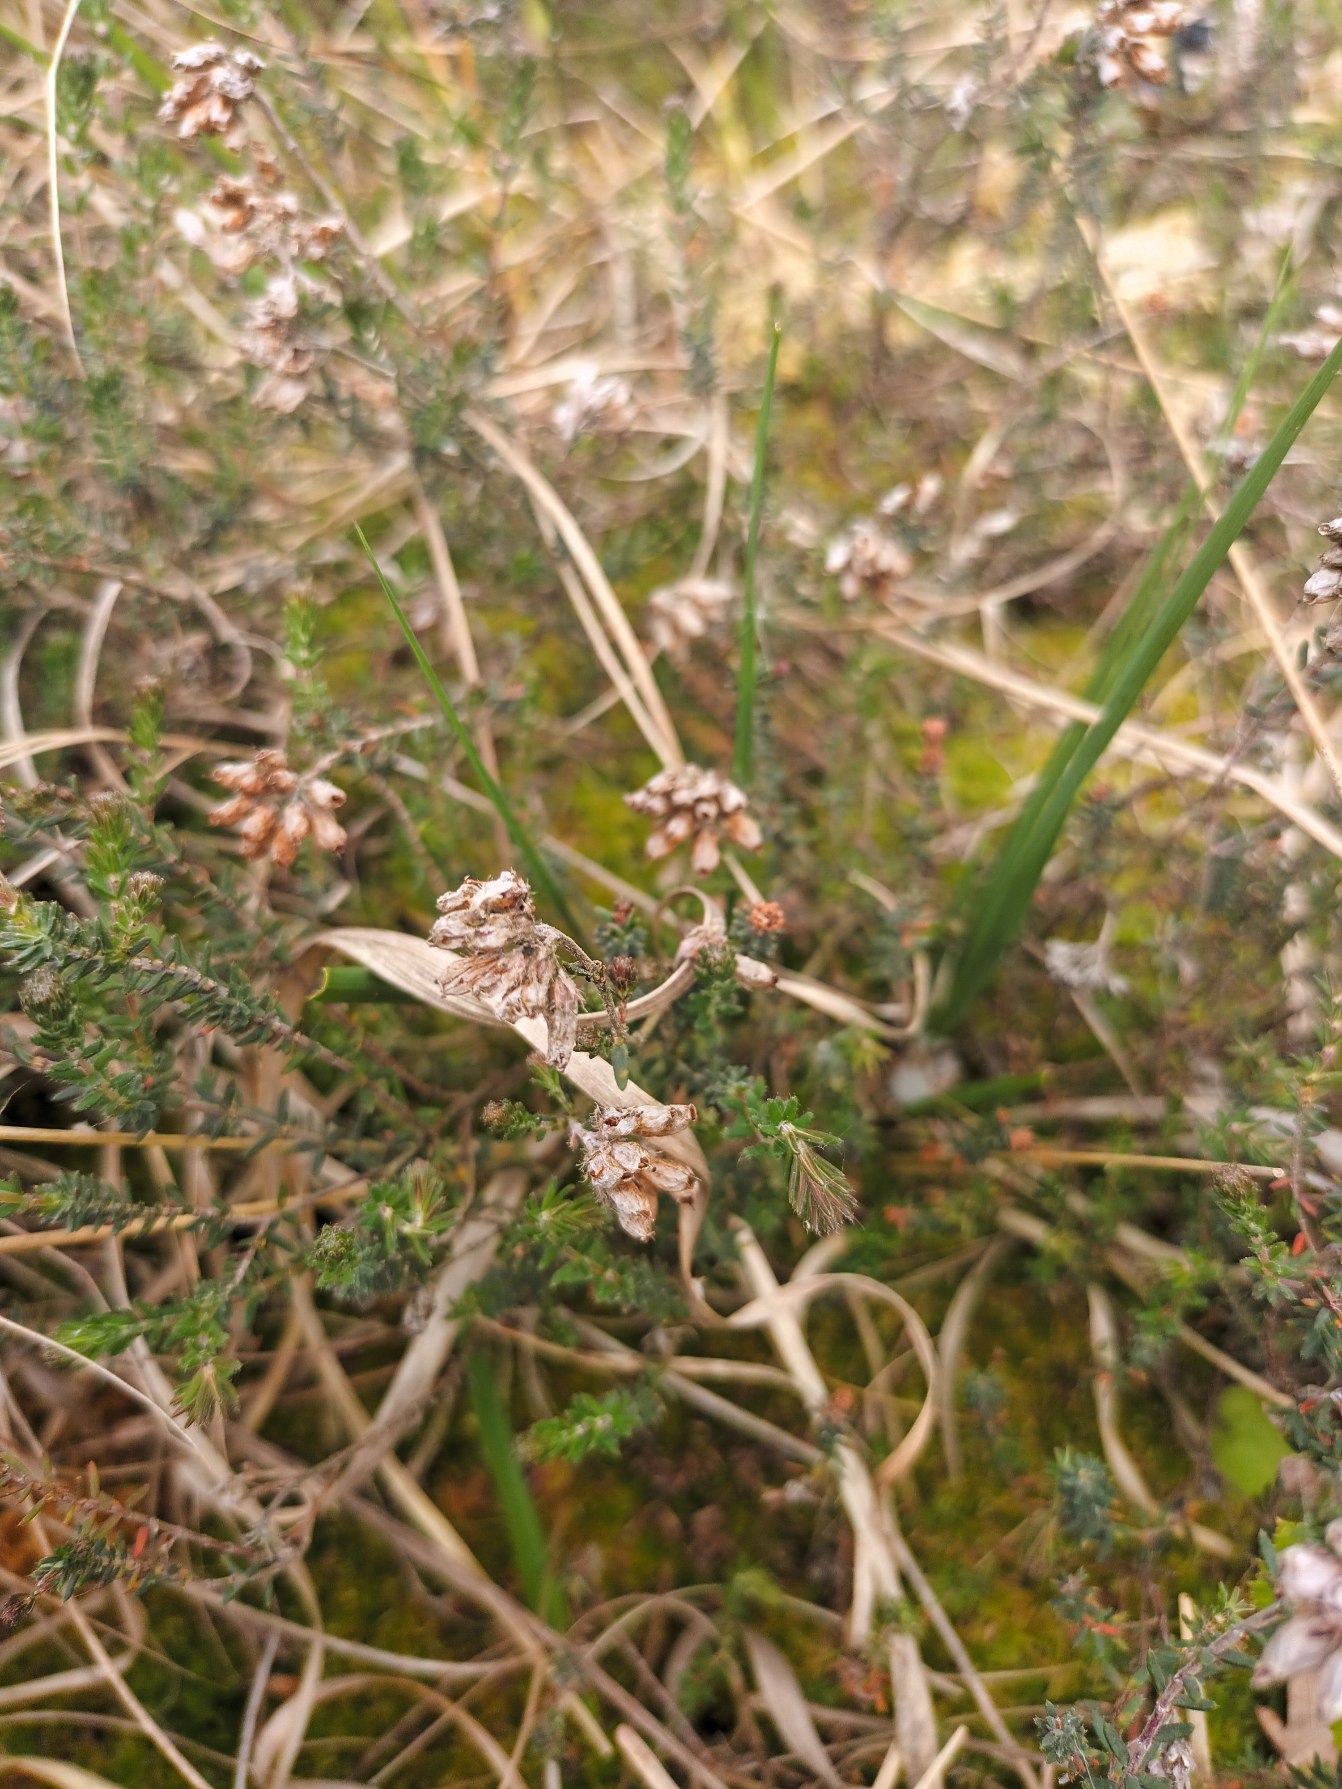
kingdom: Plantae
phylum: Tracheophyta
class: Magnoliopsida
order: Ericales
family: Ericaceae
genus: Erica
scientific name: Erica tetralix
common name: Klokkelyng
